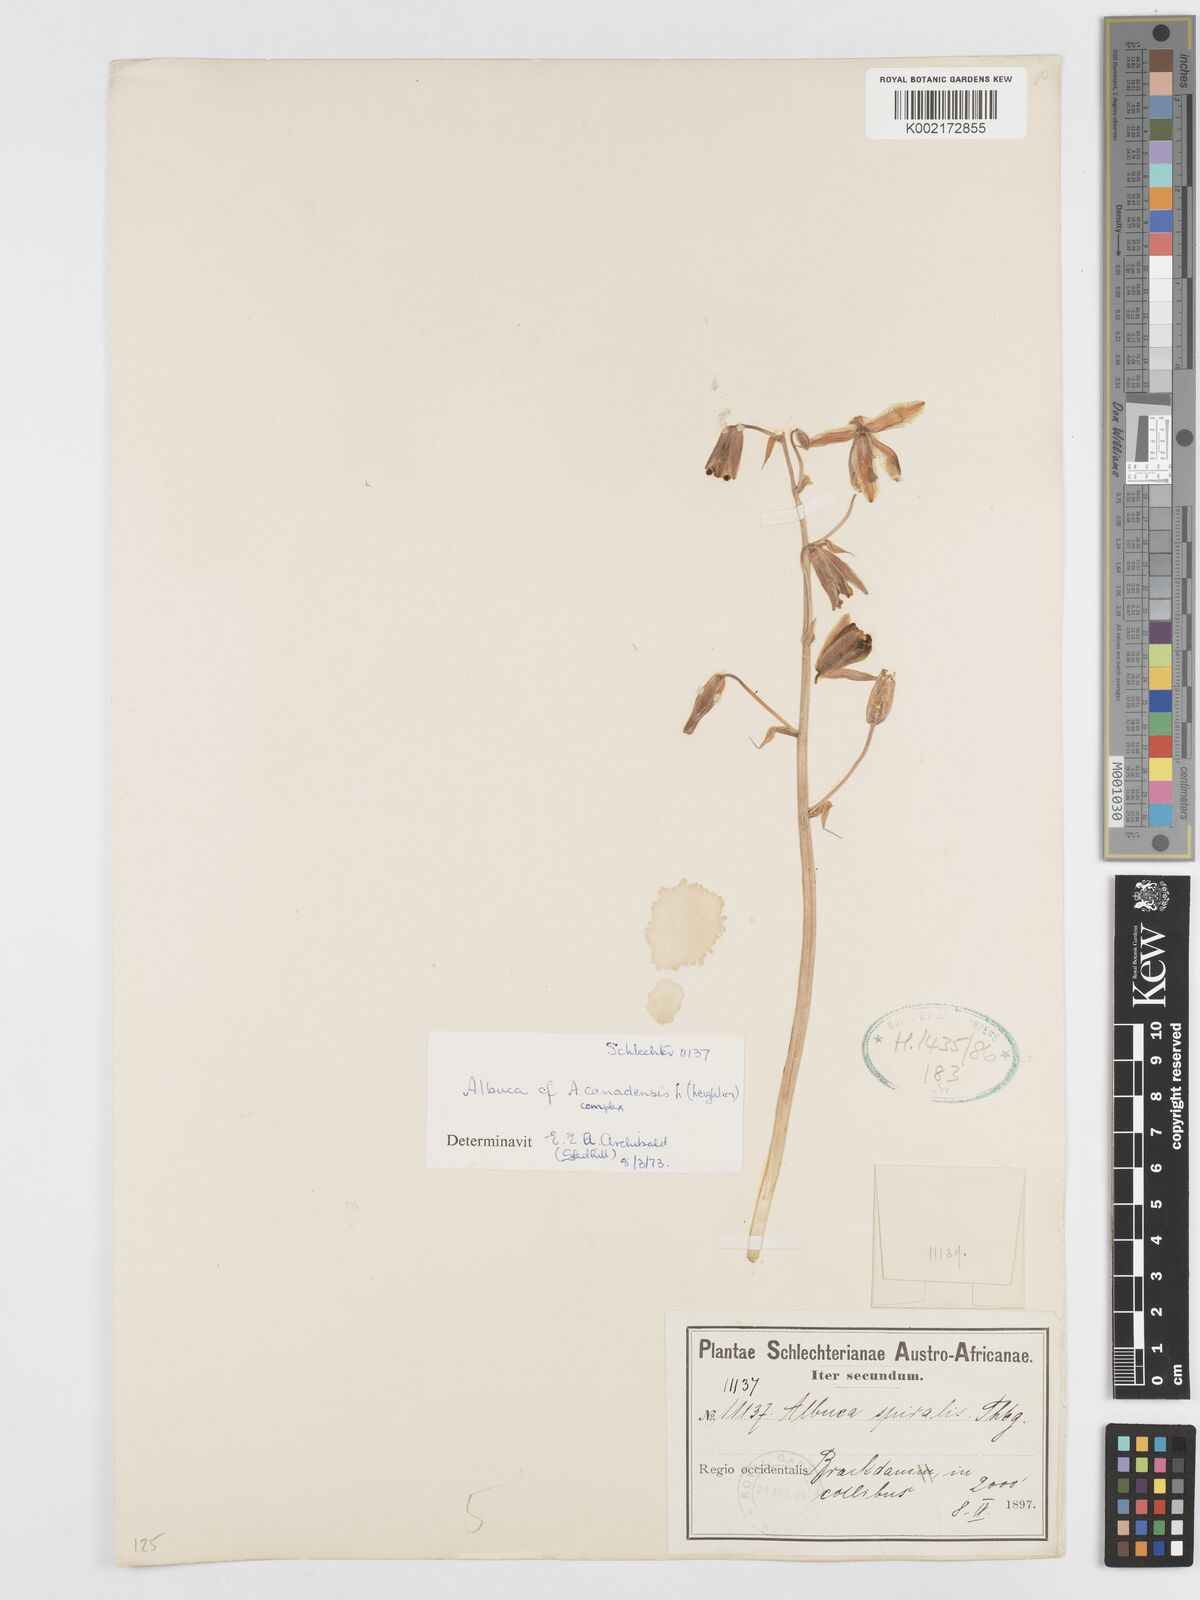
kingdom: Plantae
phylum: Tracheophyta
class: Liliopsida
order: Asparagales
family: Asparagaceae
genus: Albuca
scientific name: Albuca canadensis
